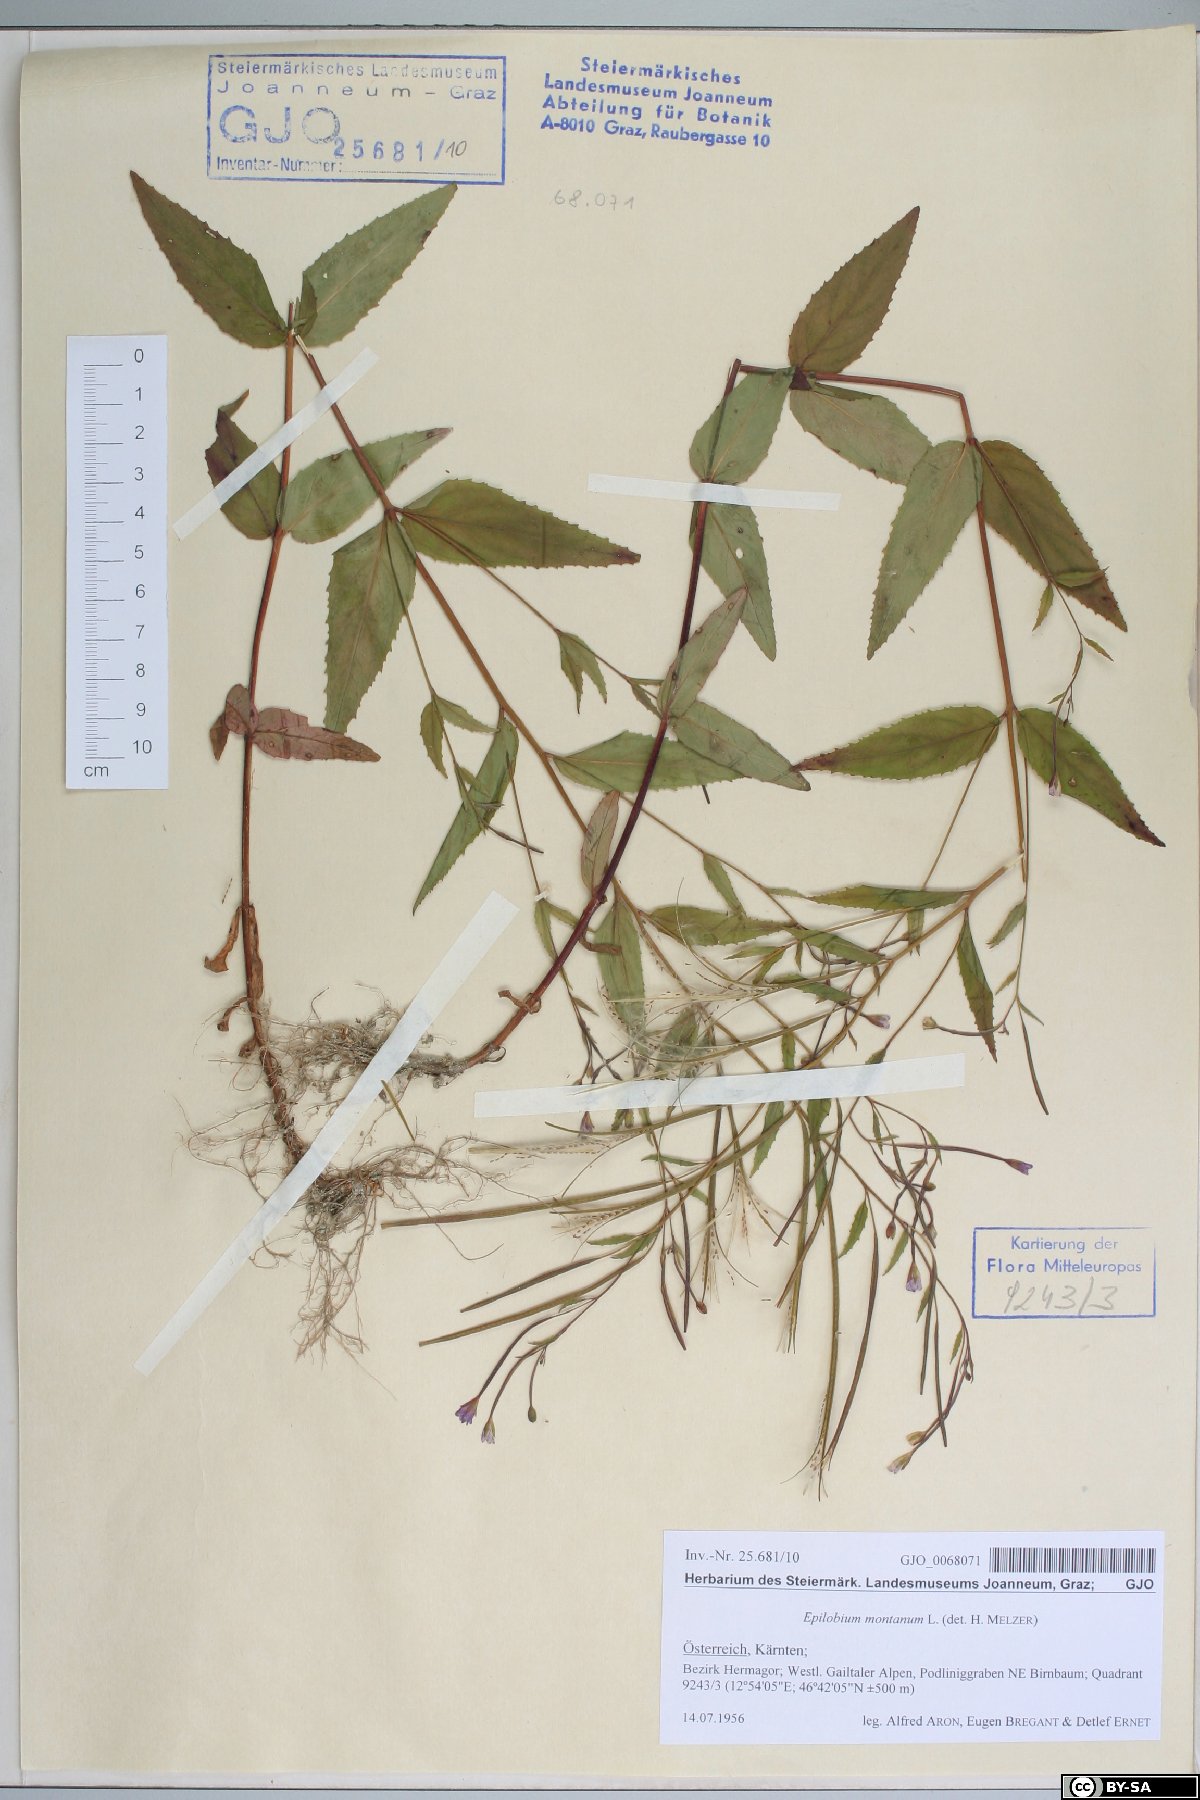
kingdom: Plantae
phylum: Tracheophyta
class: Magnoliopsida
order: Myrtales
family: Onagraceae
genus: Epilobium
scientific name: Epilobium montanum
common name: Broad-leaved willowherb
